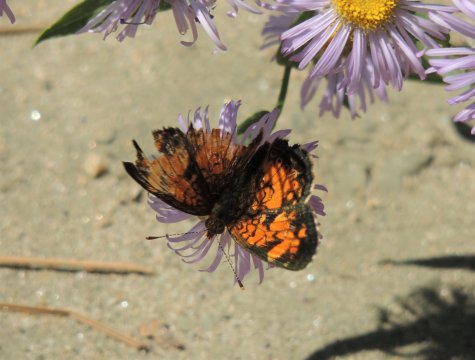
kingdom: Animalia
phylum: Arthropoda
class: Insecta
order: Lepidoptera
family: Nymphalidae
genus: Phyciodes
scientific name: Phyciodes tharos
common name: Northern Crescent
